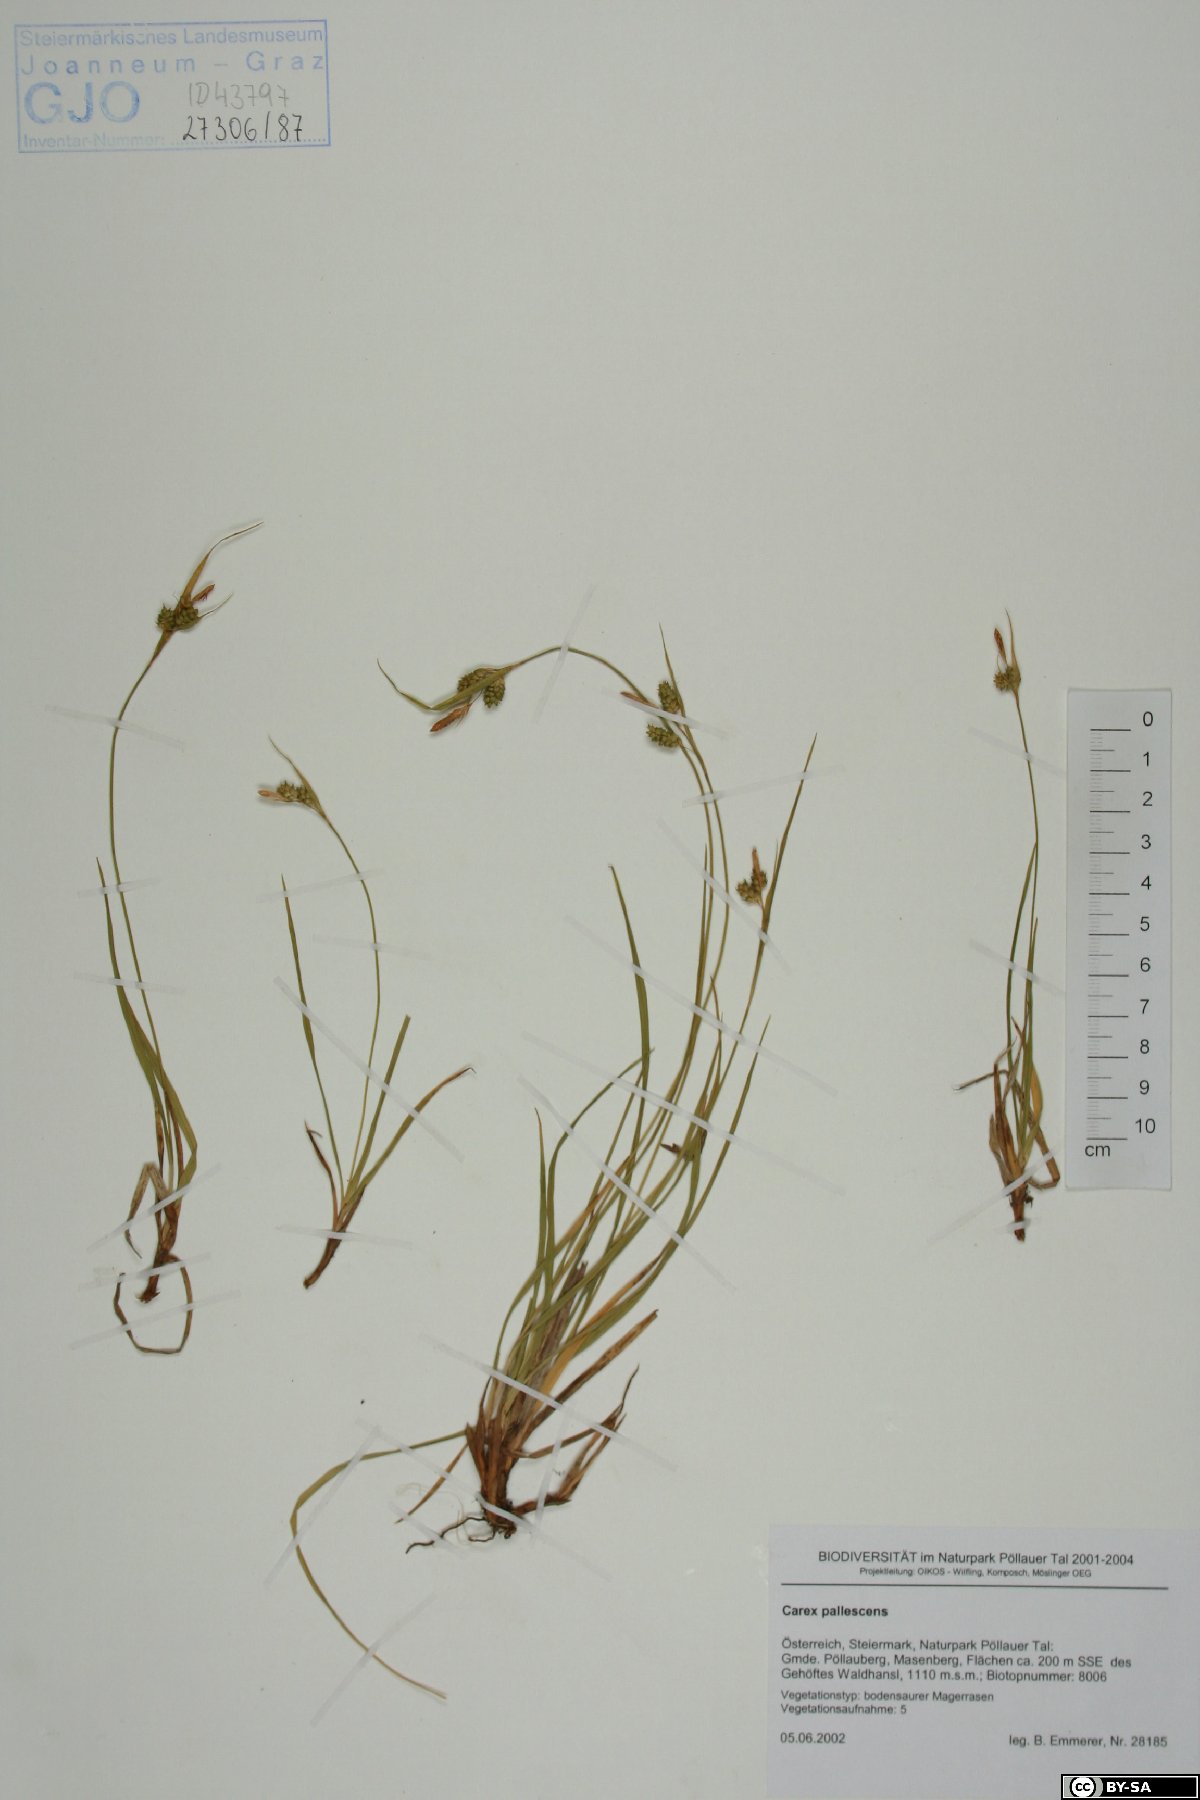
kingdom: Plantae
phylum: Tracheophyta
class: Liliopsida
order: Poales
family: Cyperaceae
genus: Carex
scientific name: Carex pallescens
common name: Pale sedge
